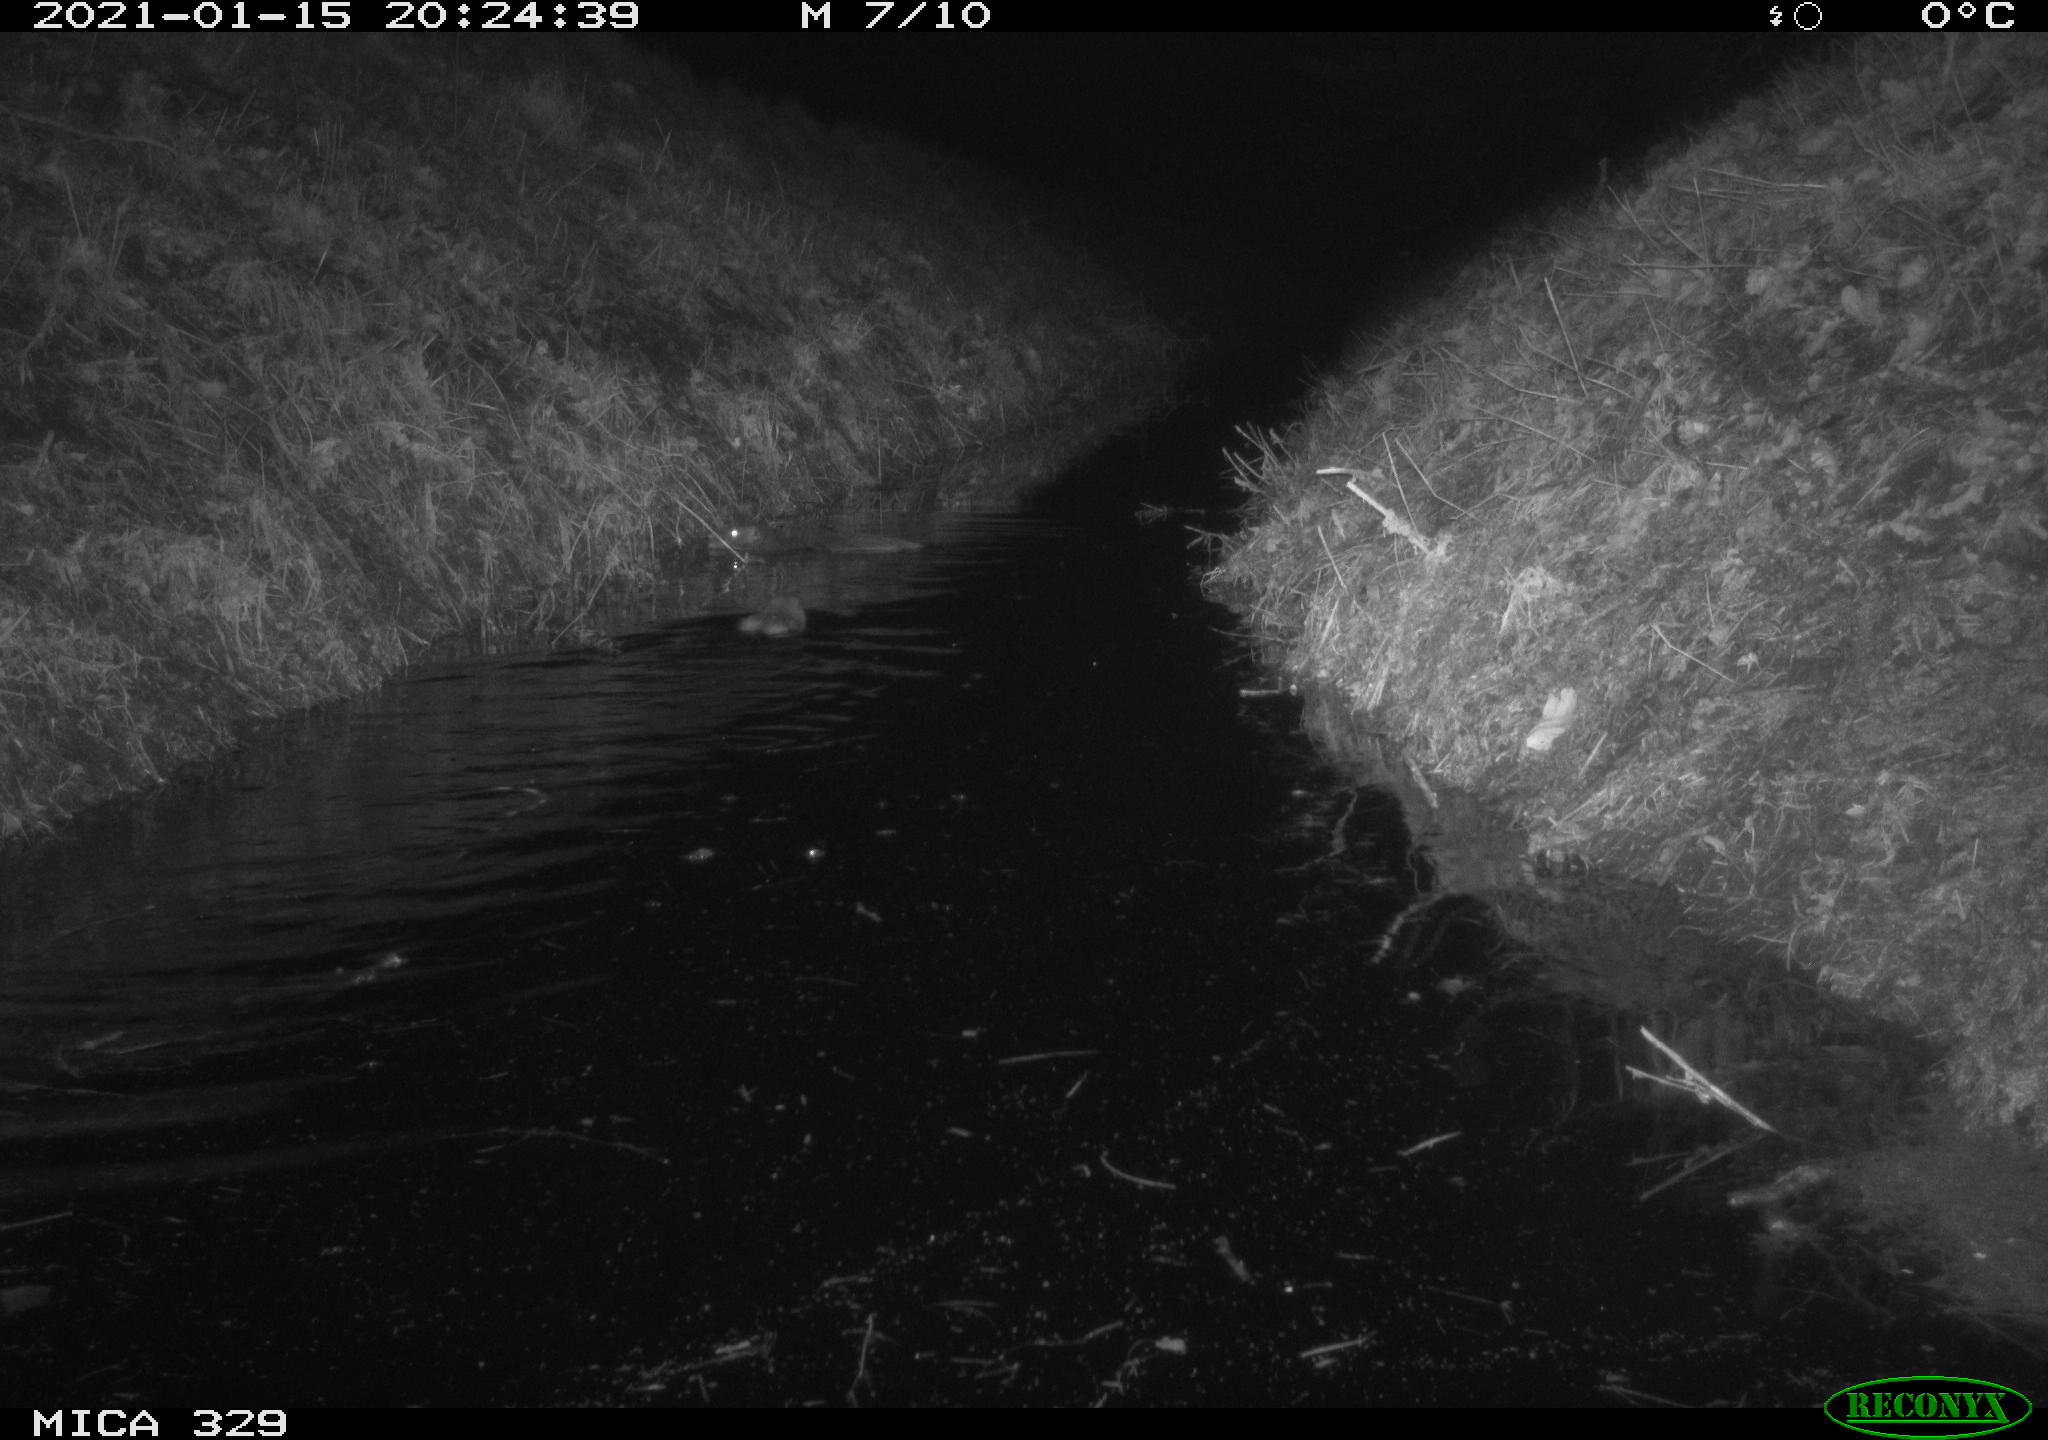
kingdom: Animalia
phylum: Chordata
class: Mammalia
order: Rodentia
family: Myocastoridae
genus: Myocastor
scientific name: Myocastor coypus
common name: Coypu
